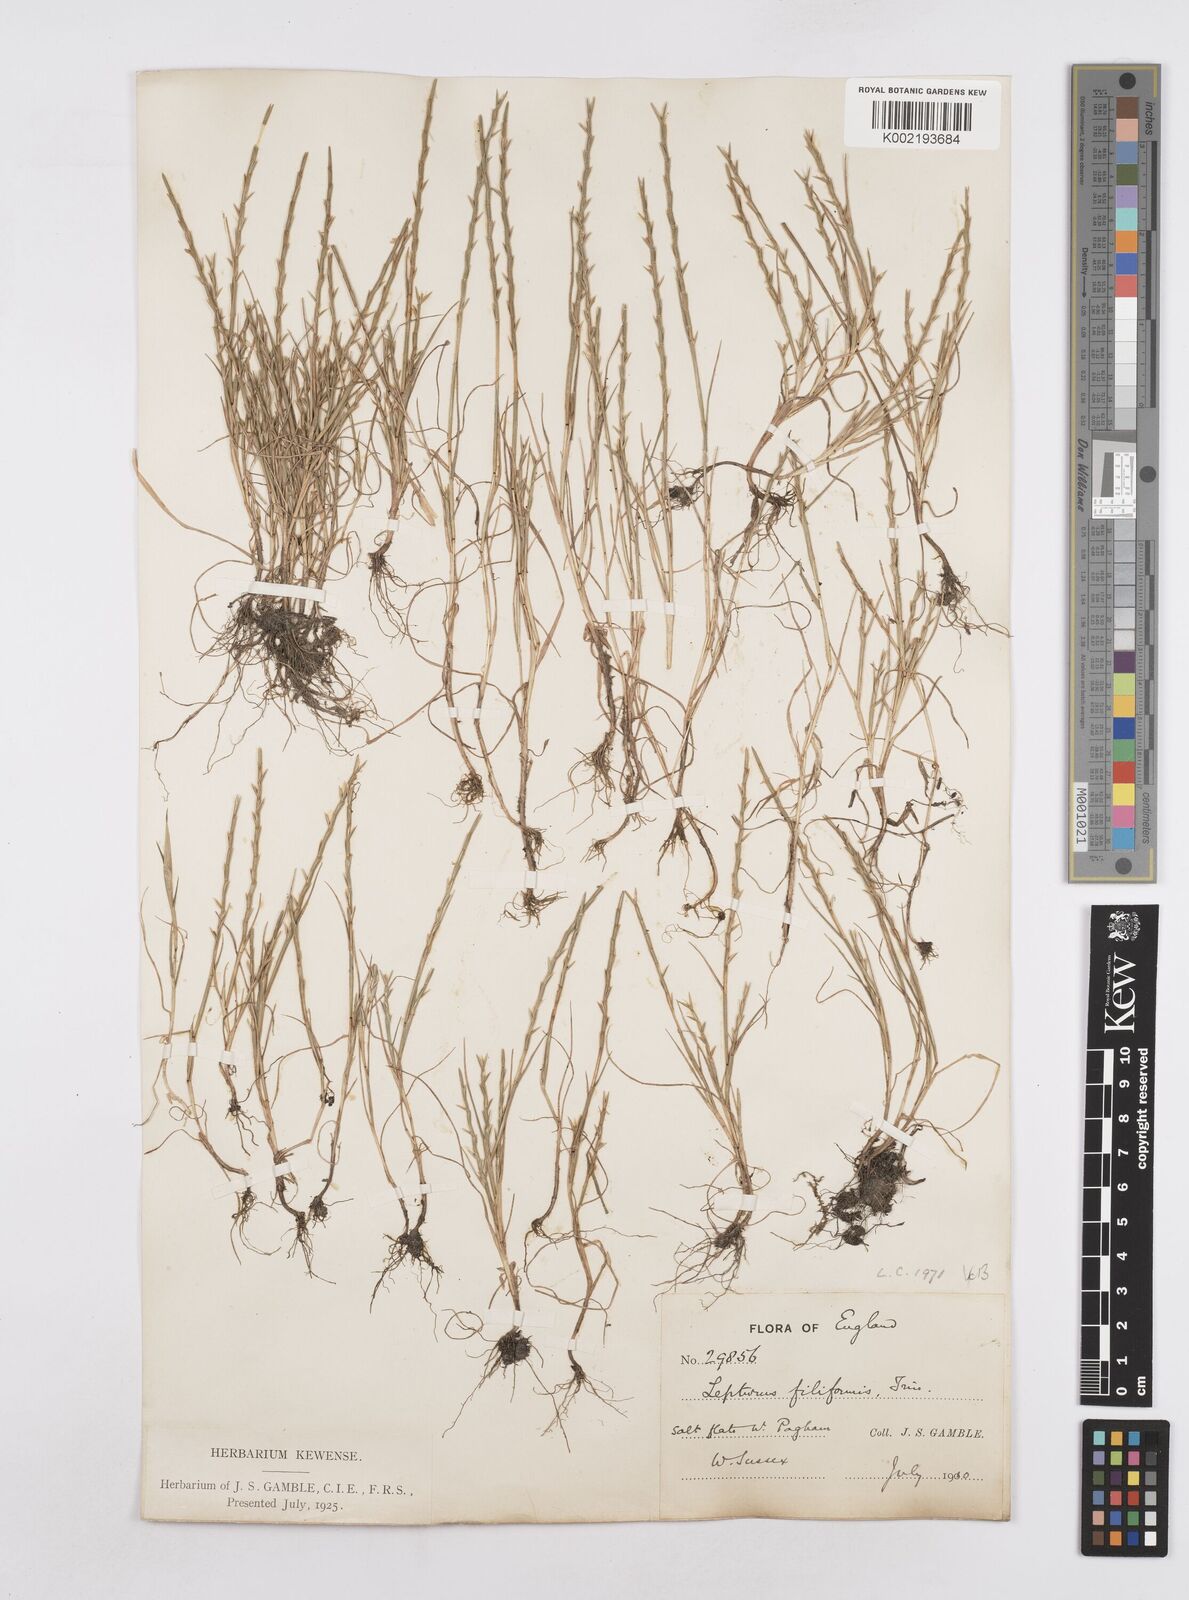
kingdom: Plantae
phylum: Tracheophyta
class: Liliopsida
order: Poales
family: Poaceae
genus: Parapholis
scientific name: Parapholis strigosa
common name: Hard-grass
